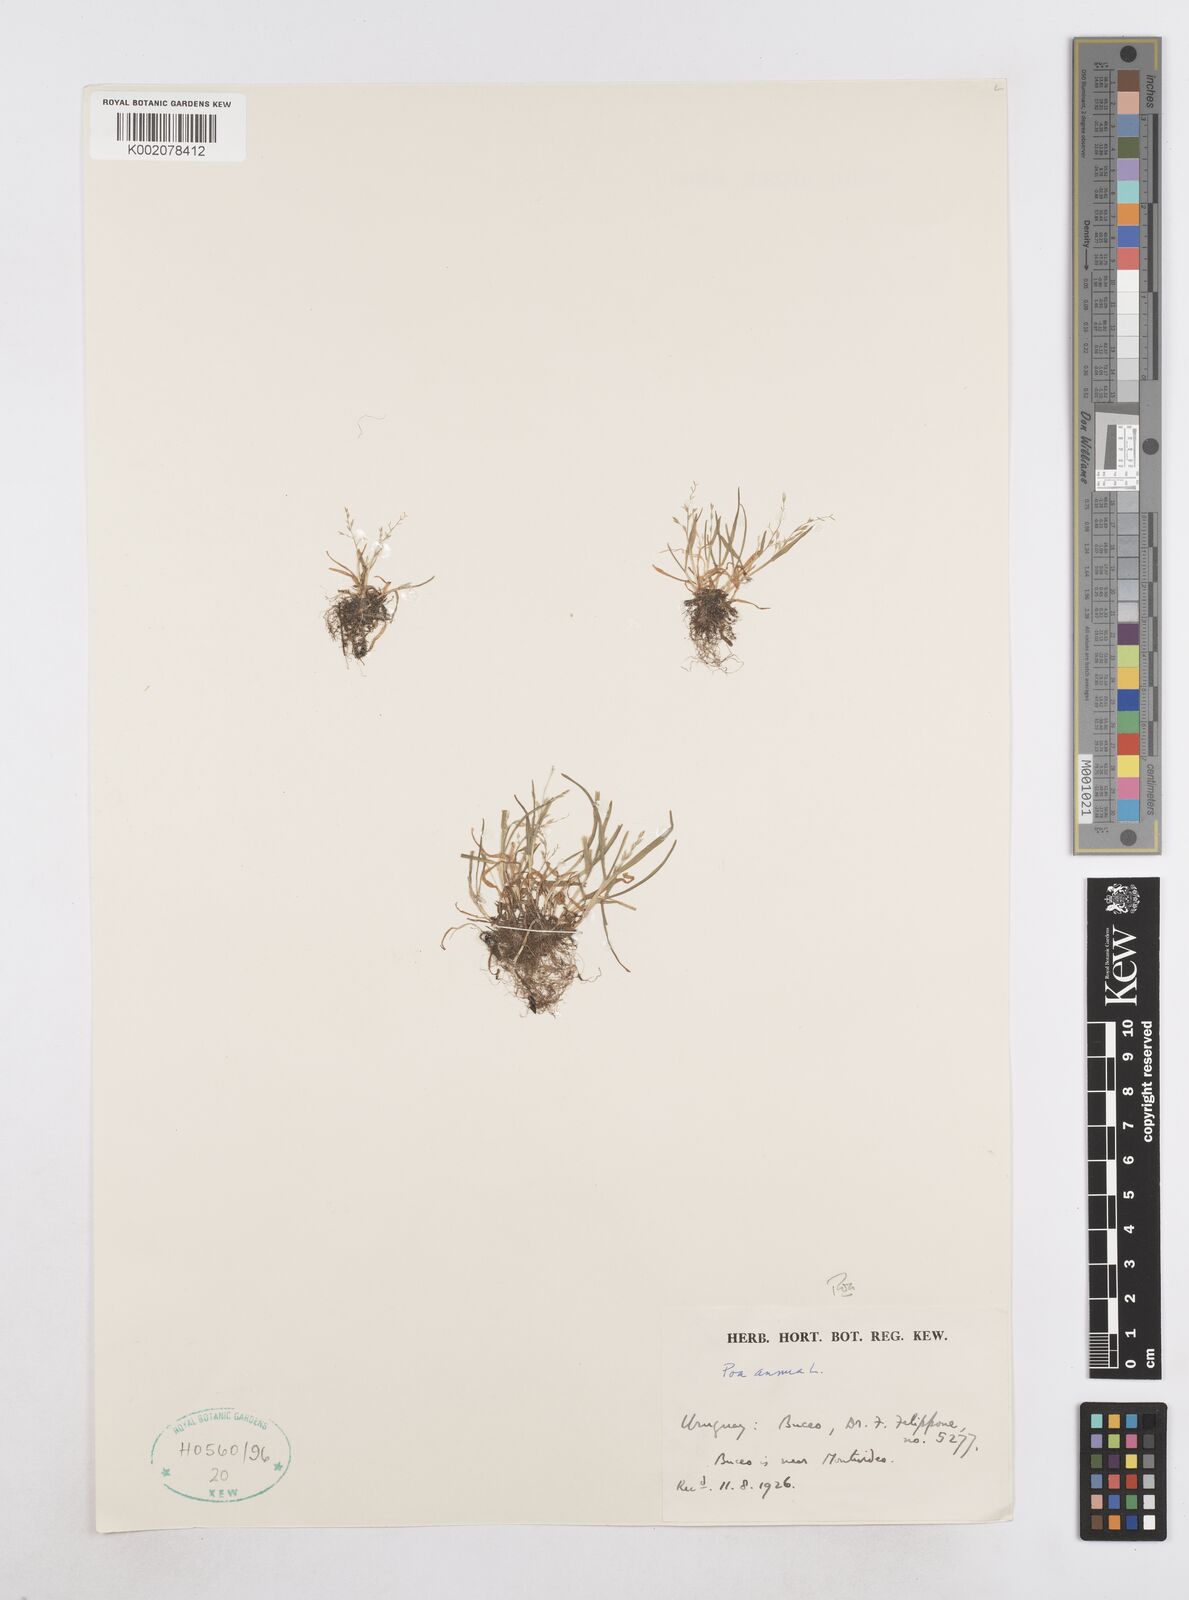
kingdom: Plantae
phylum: Tracheophyta
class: Liliopsida
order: Poales
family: Poaceae
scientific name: Poaceae
